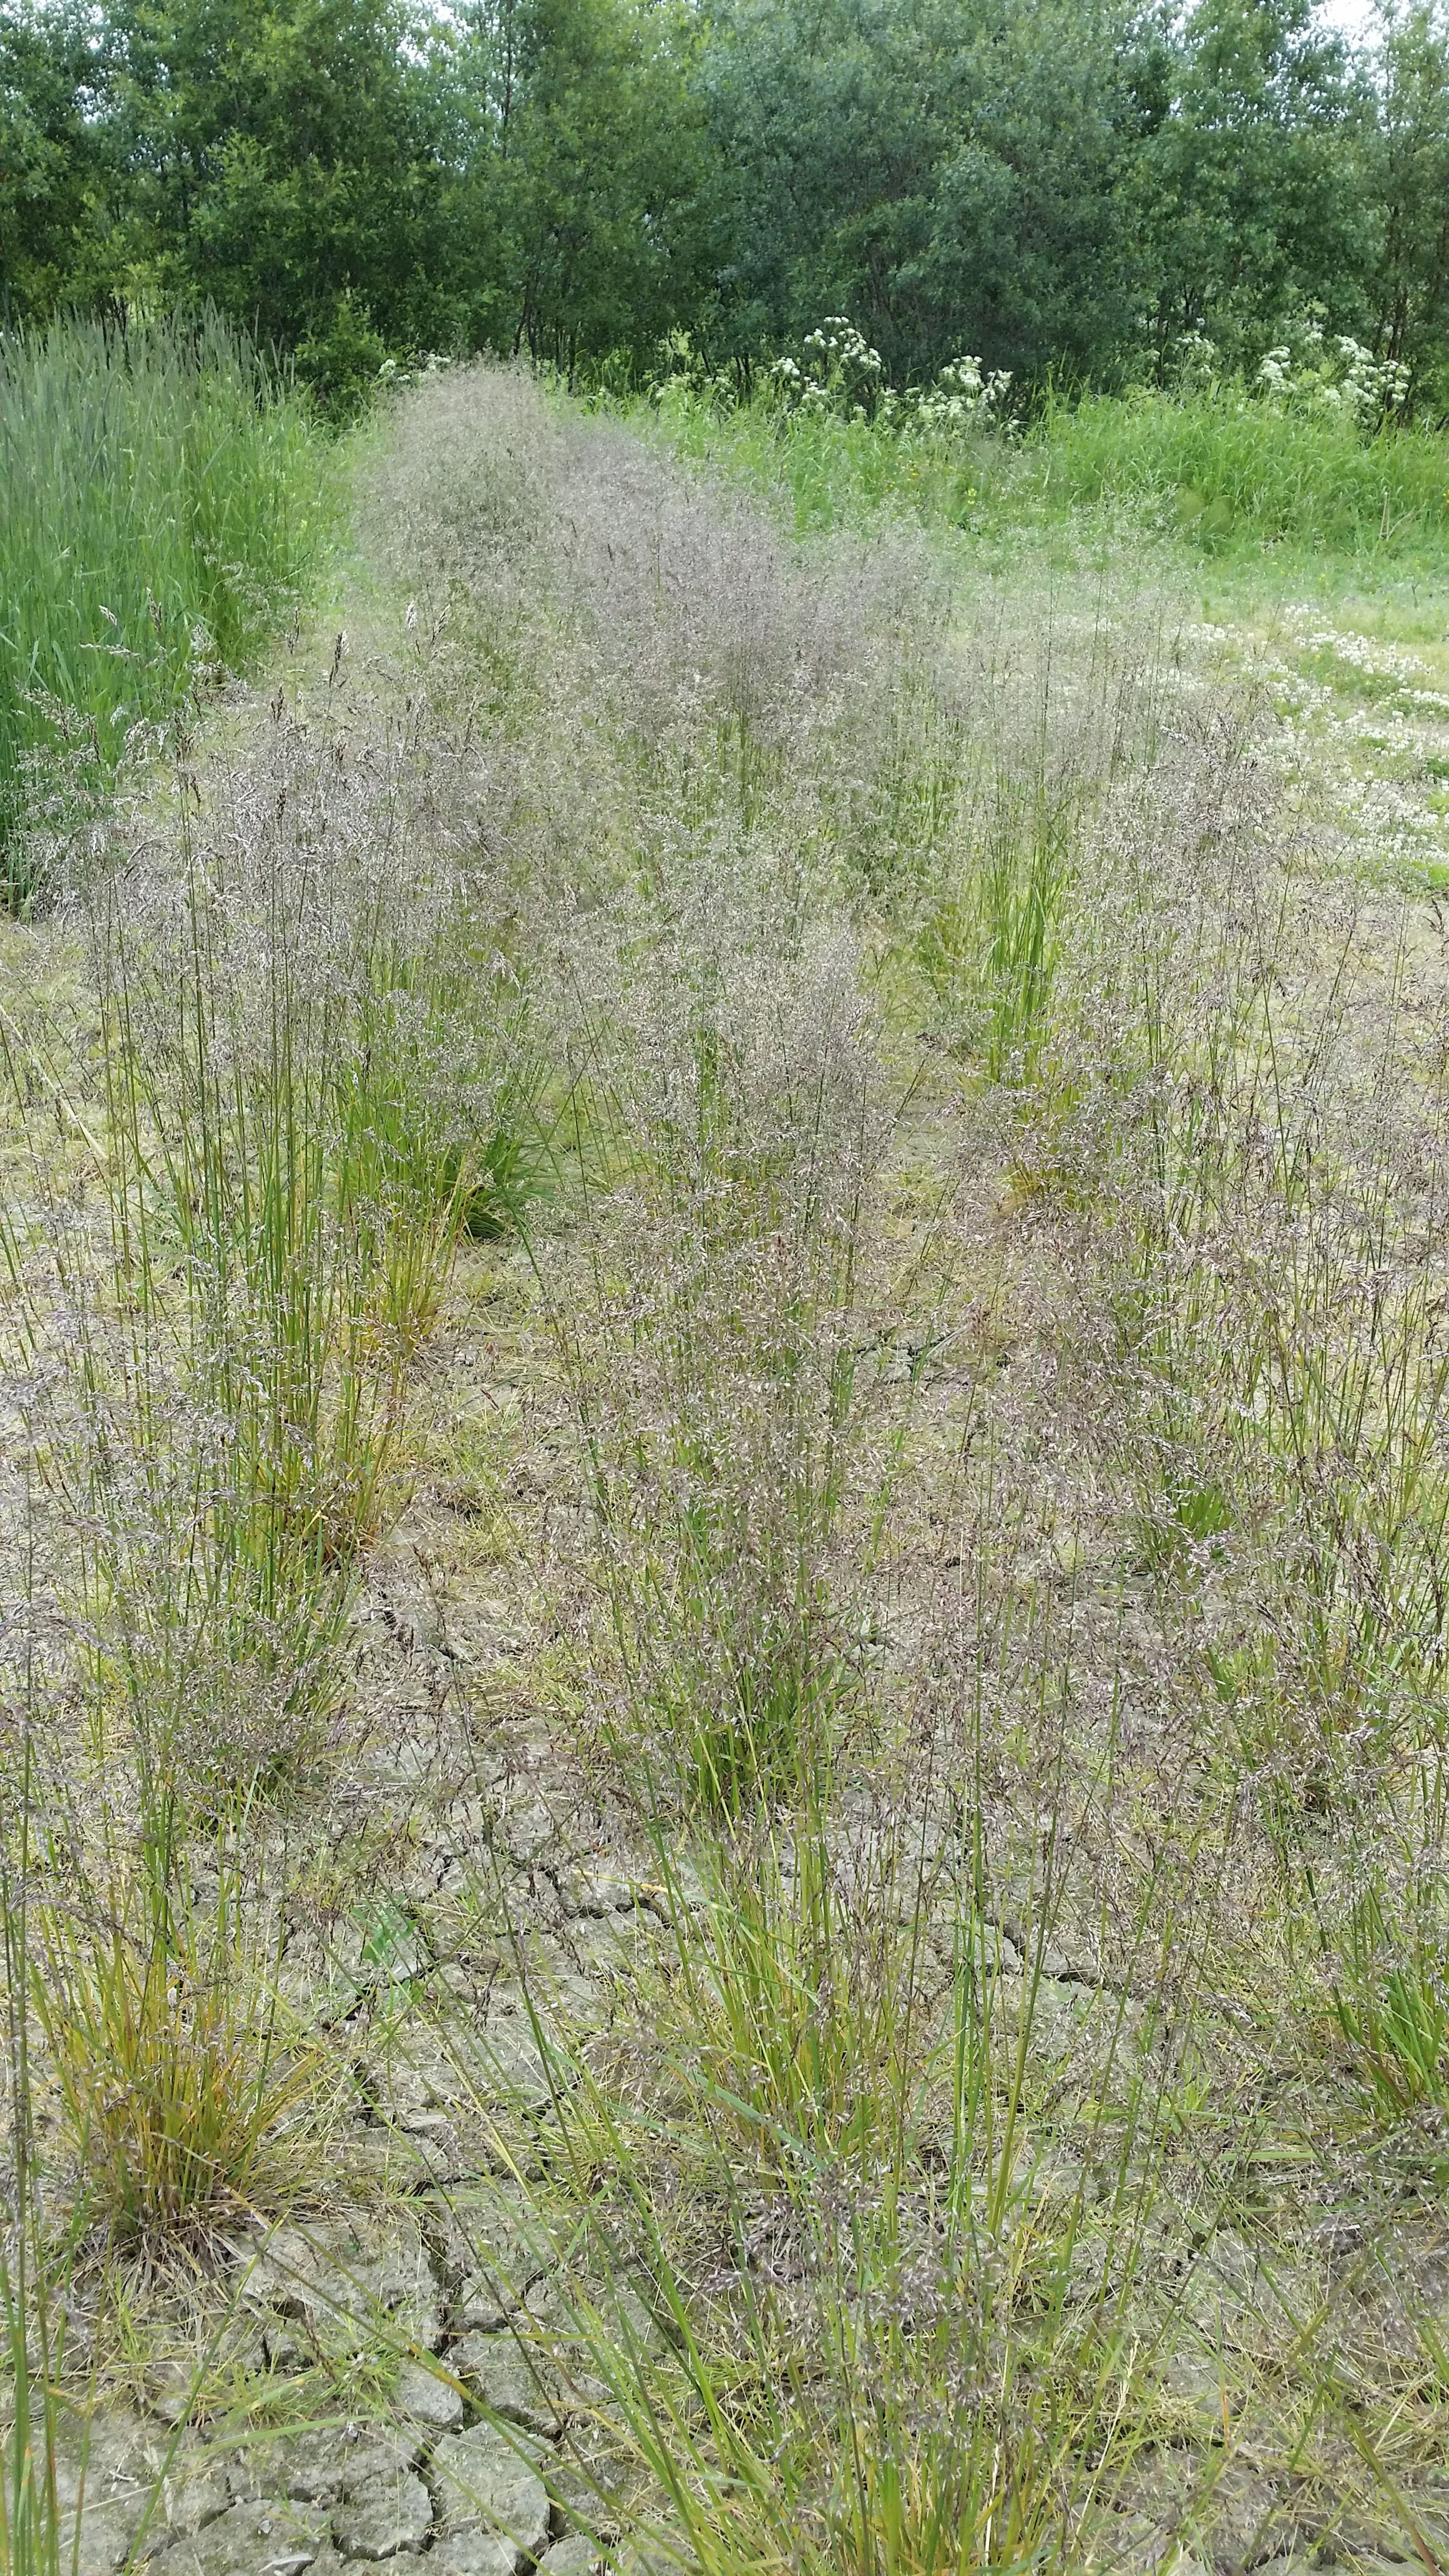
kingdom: Plantae
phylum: Tracheophyta
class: Liliopsida
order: Poales
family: Poaceae
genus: Deschampsia
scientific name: Deschampsia cespitosa
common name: Tufted hair-grass
